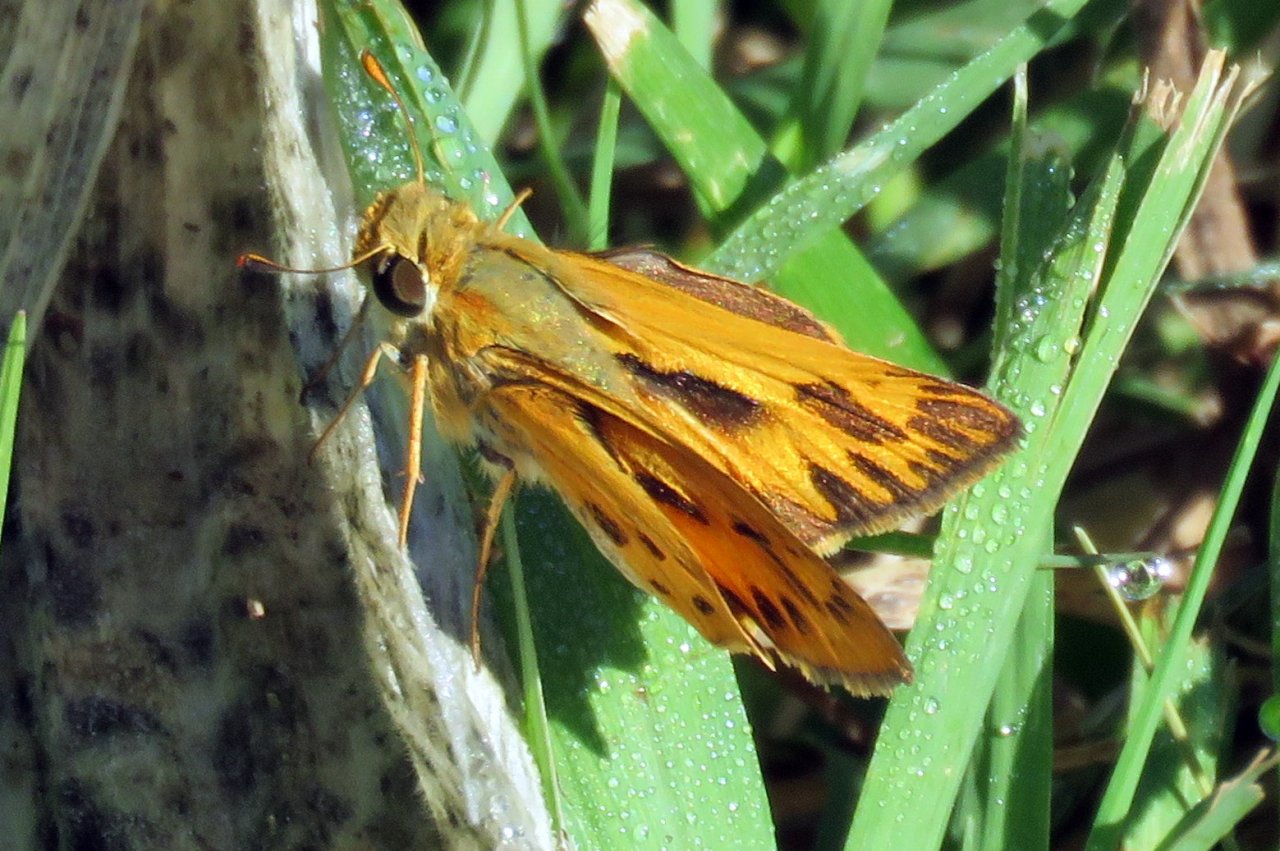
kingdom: Animalia
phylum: Arthropoda
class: Insecta
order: Lepidoptera
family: Hesperiidae
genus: Hylephila
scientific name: Hylephila phyleus
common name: Fiery Skipper
